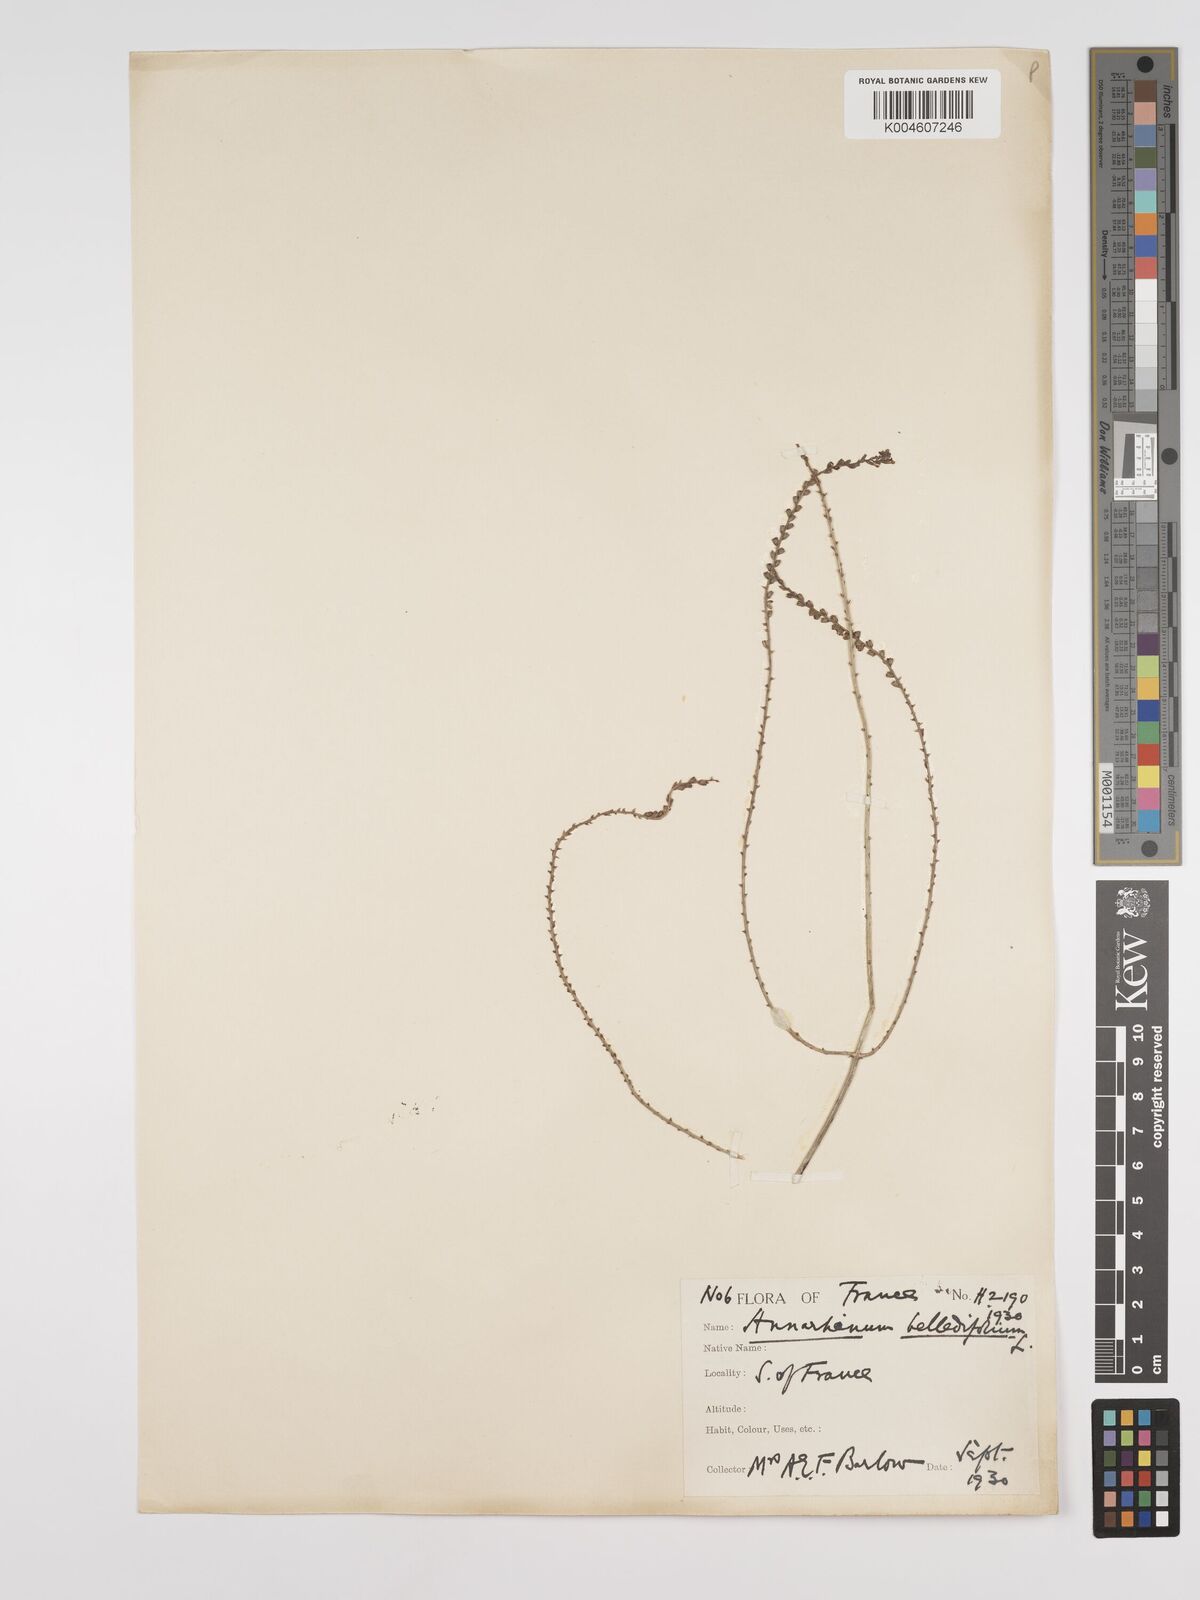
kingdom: Plantae
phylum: Tracheophyta
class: Magnoliopsida
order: Lamiales
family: Plantaginaceae
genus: Anarrhinum
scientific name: Anarrhinum laxiflorum
